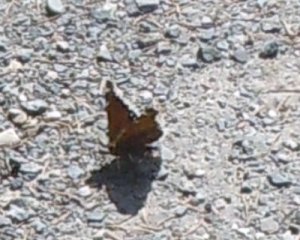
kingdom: Animalia
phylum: Arthropoda
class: Insecta
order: Lepidoptera
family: Nymphalidae
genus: Nymphalis
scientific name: Nymphalis antiopa
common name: Mourning Cloak
